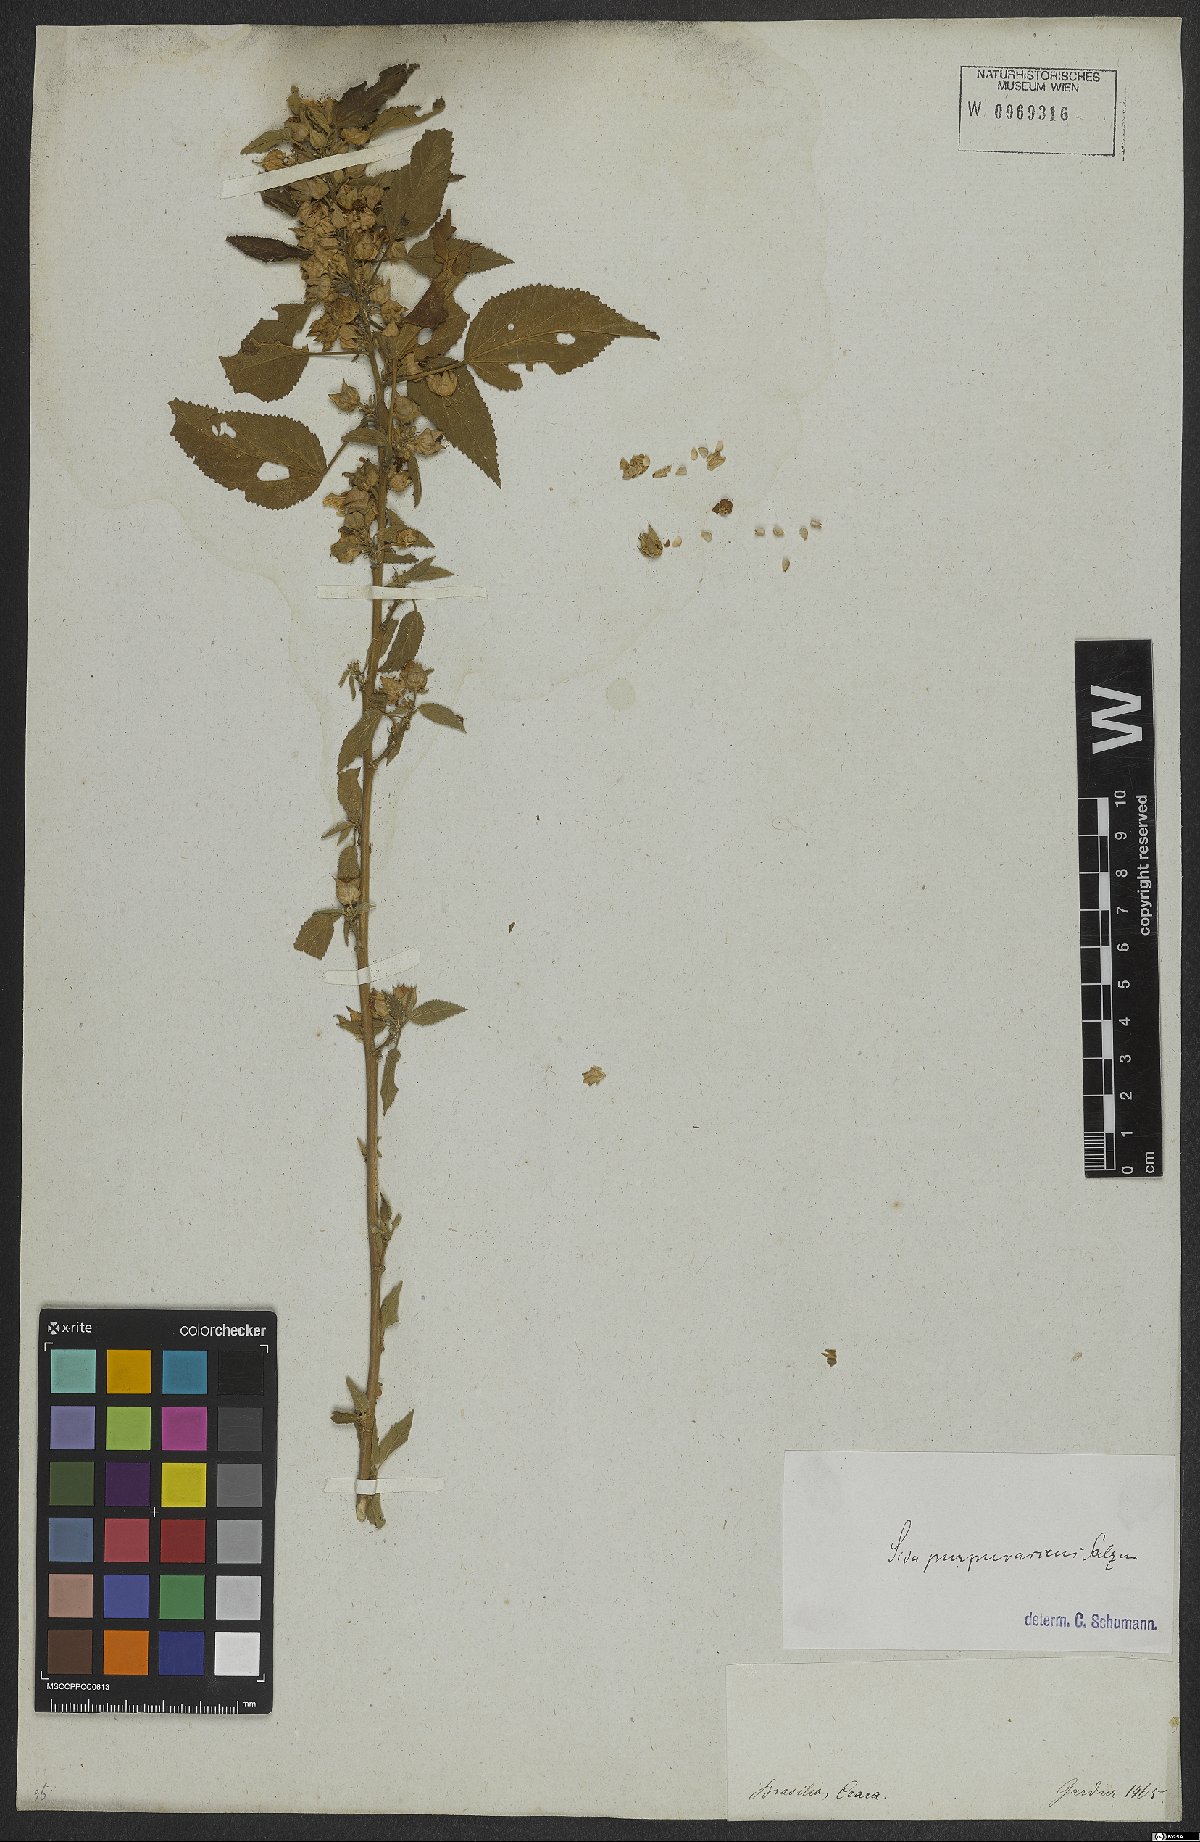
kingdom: Plantae
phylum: Tracheophyta
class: Magnoliopsida
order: Malvales
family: Malvaceae
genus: Bakeridesia
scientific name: Bakeridesia esculenta
